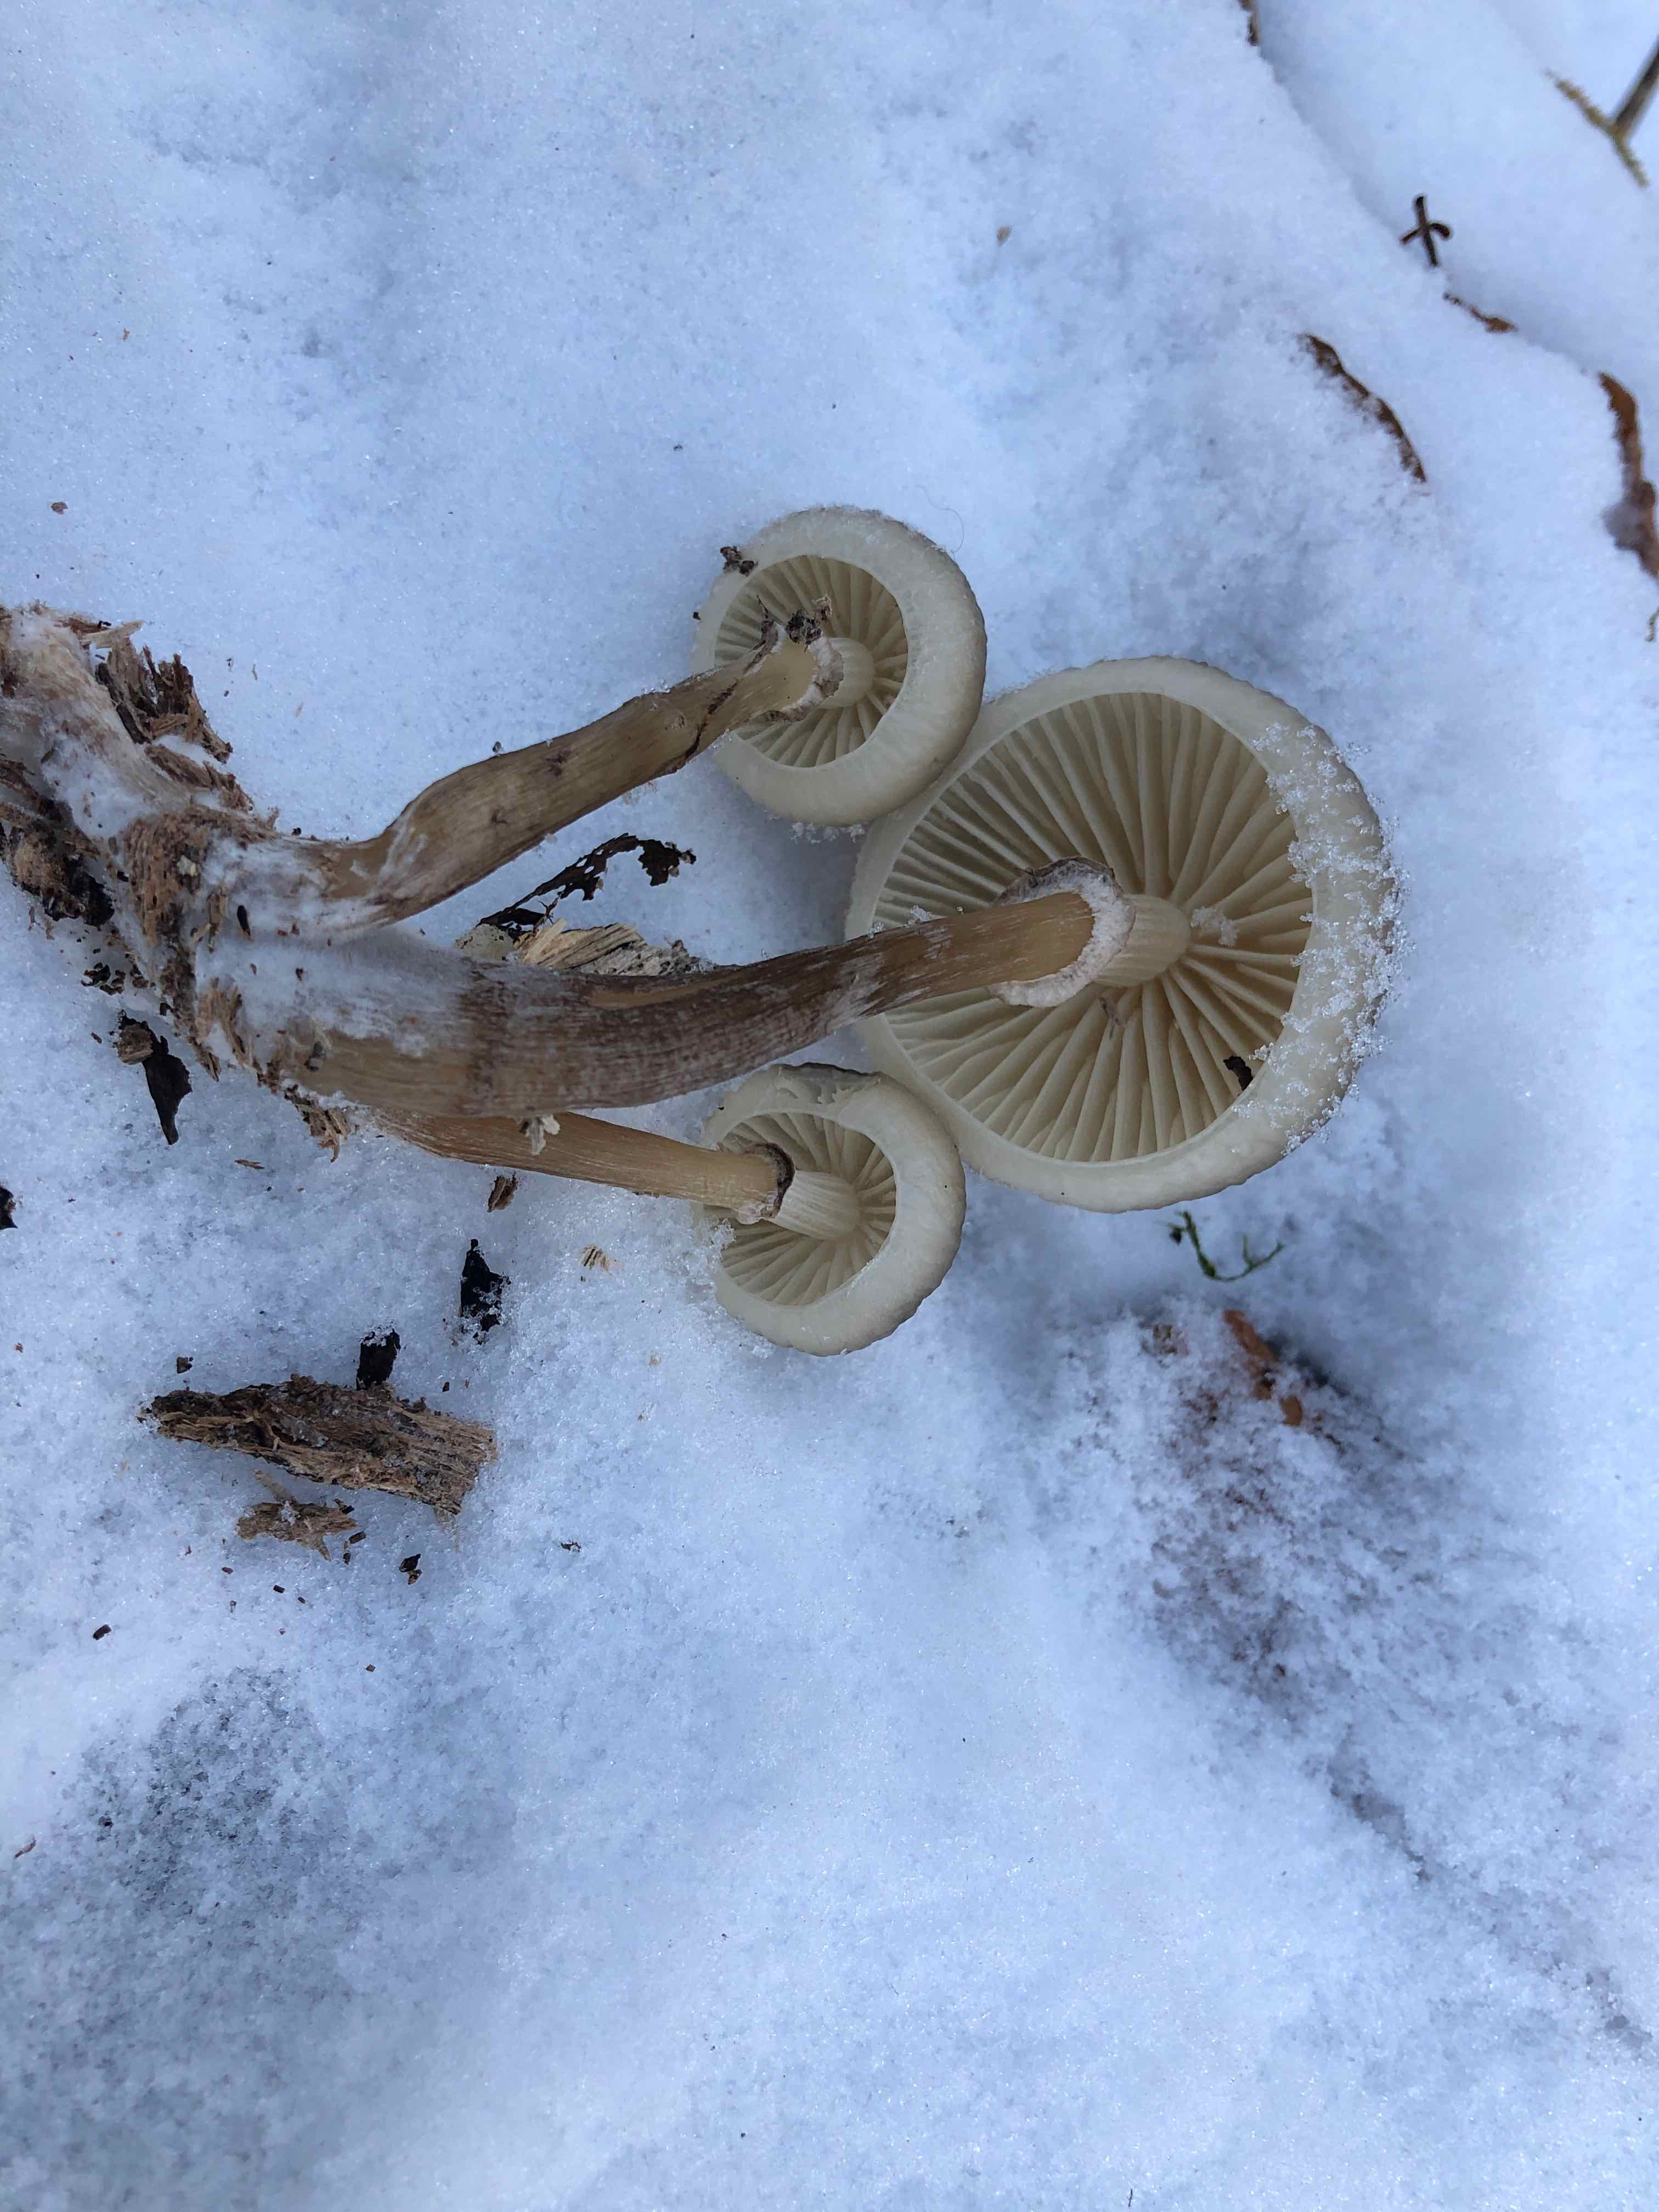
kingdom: Fungi
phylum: Basidiomycota
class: Agaricomycetes
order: Agaricales
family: Physalacriaceae
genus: Mucidula
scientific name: Mucidula mucida
